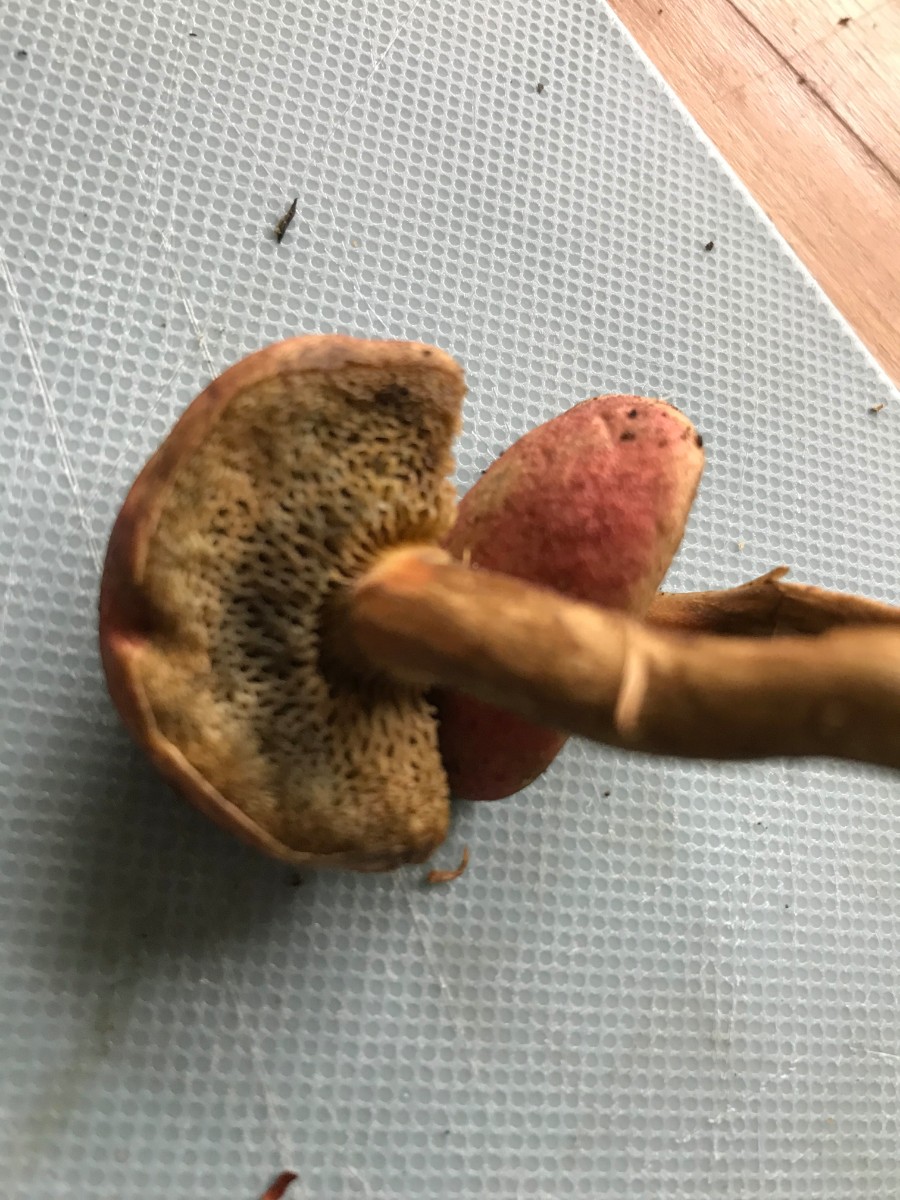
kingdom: Fungi
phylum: Basidiomycota
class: Agaricomycetes
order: Boletales
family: Boletaceae
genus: Hortiboletus
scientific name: Hortiboletus rubellus
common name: blodrød rørhat
